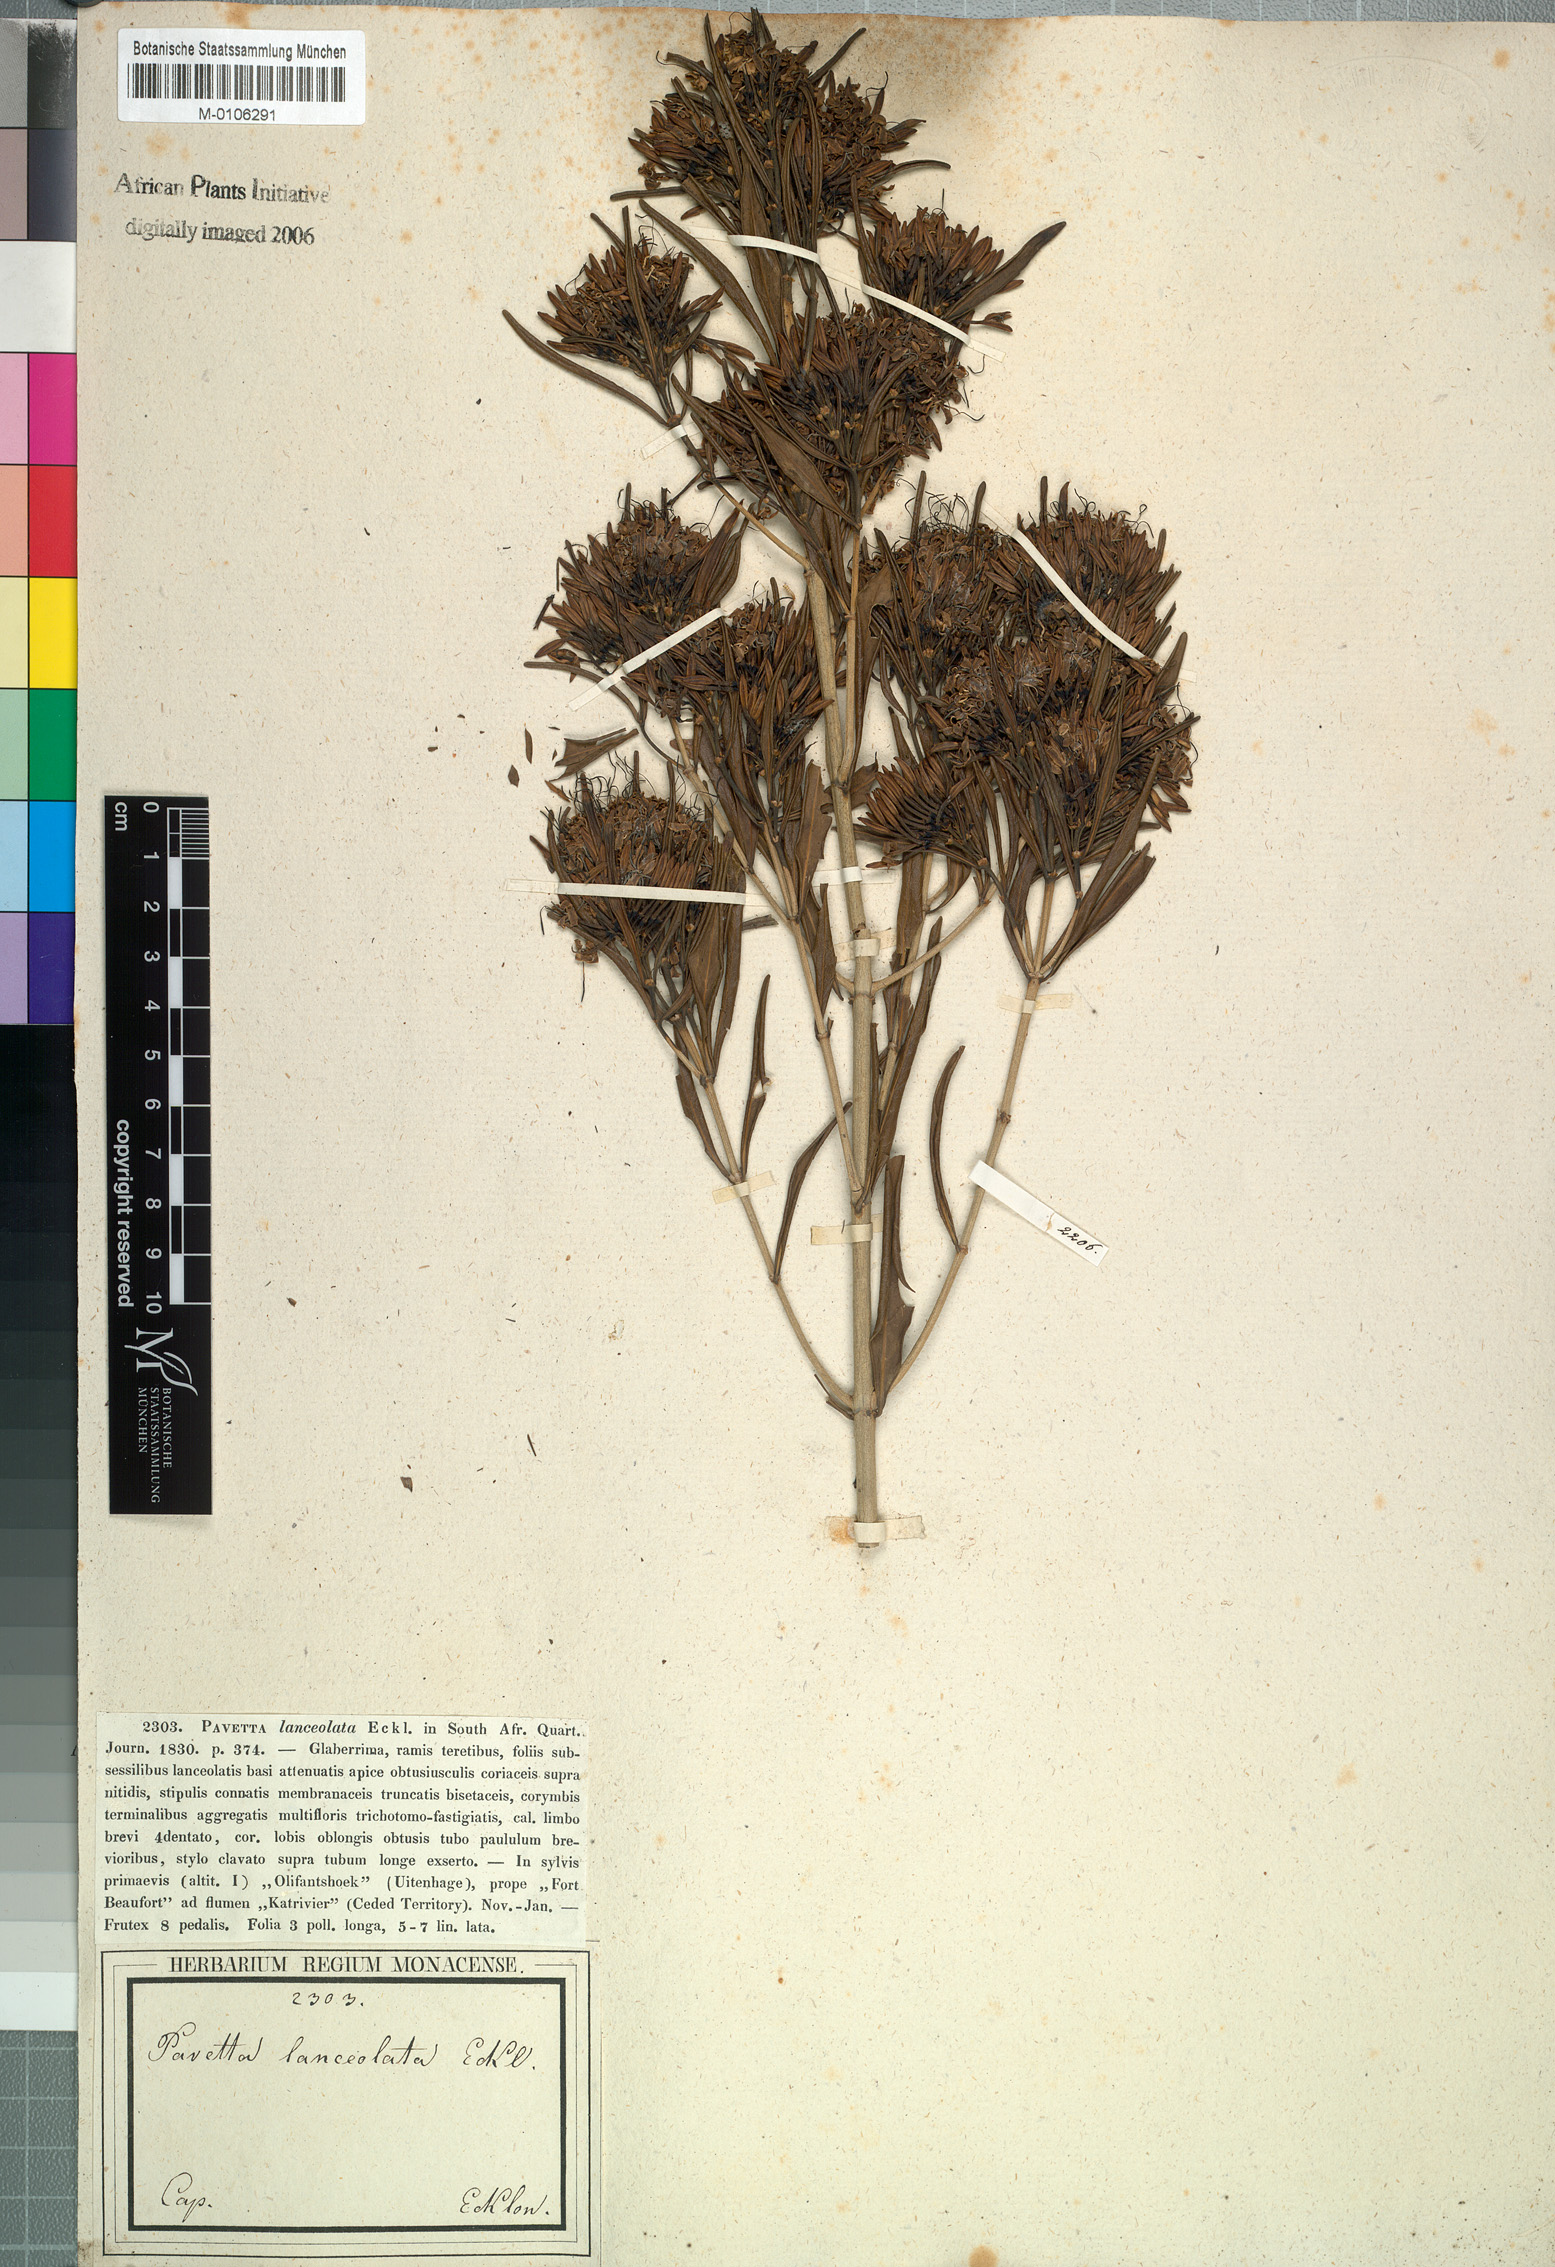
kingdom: Plantae
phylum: Tracheophyta
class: Magnoliopsida
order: Gentianales
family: Rubiaceae
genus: Pavetta
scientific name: Pavetta lanceolata
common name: Weeping brides-bush
